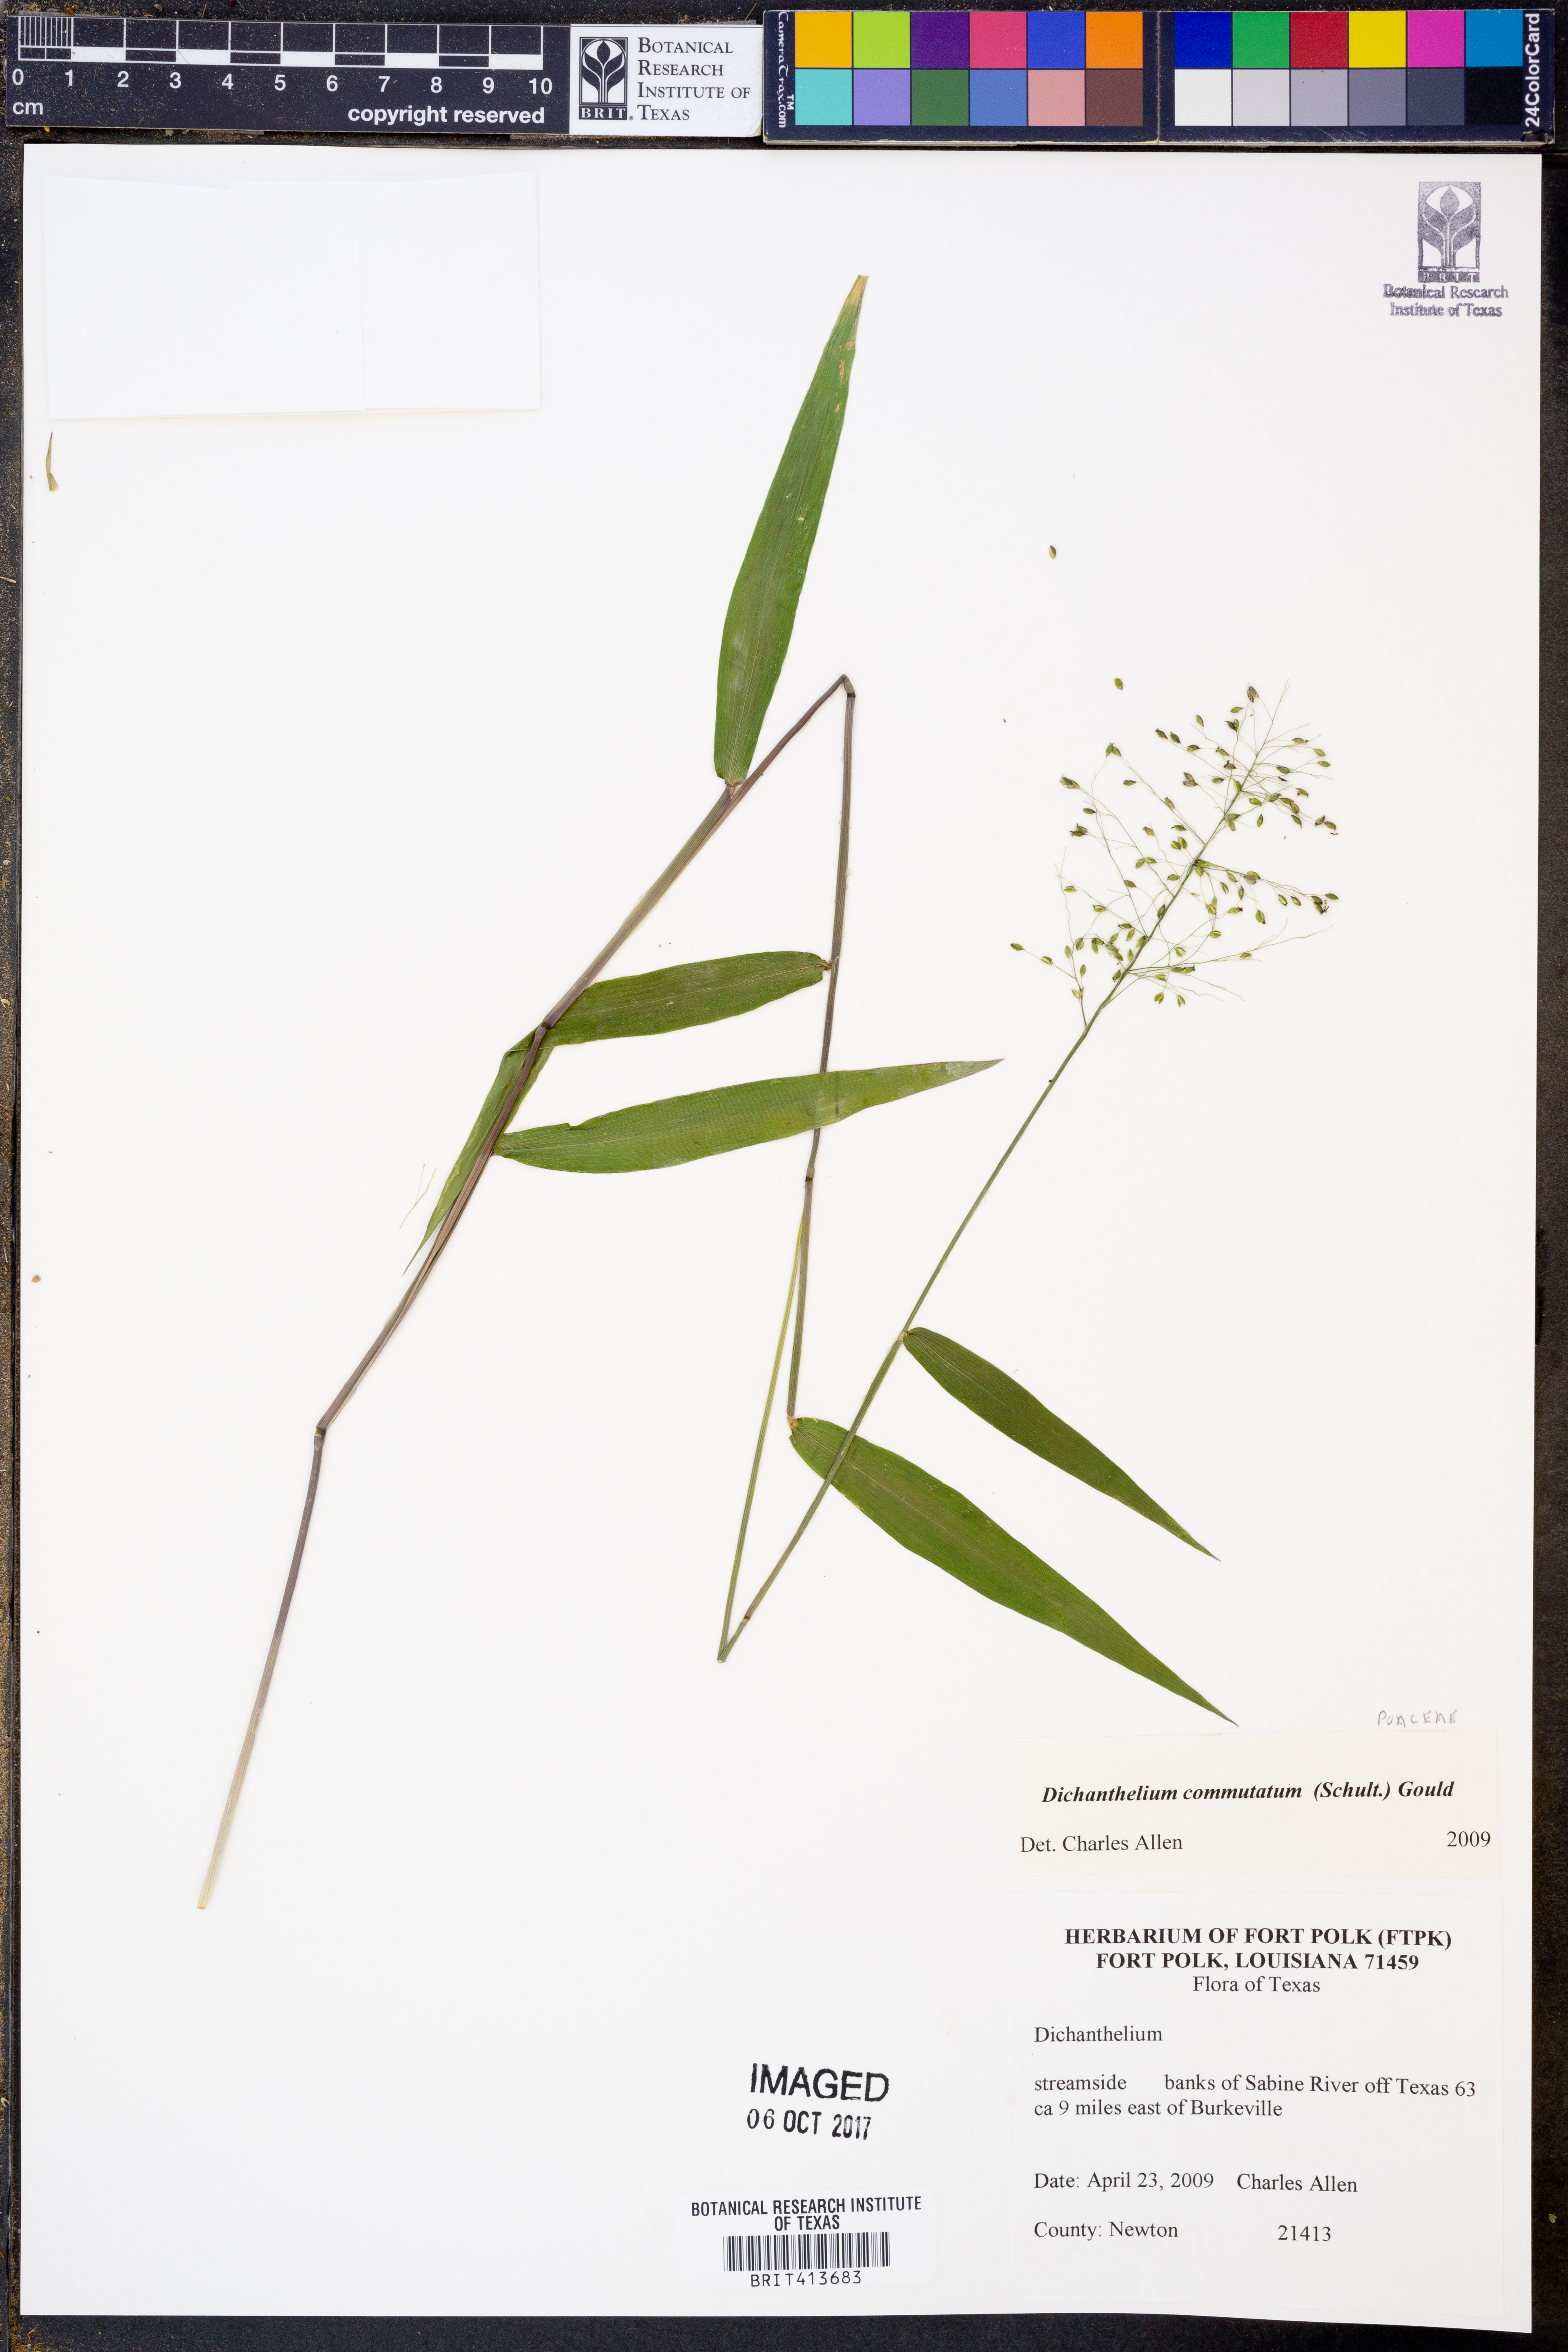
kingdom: Plantae
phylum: Tracheophyta
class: Liliopsida
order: Poales
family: Poaceae
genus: Dichanthelium
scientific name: Dichanthelium commutatum
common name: Variable witchgrass
